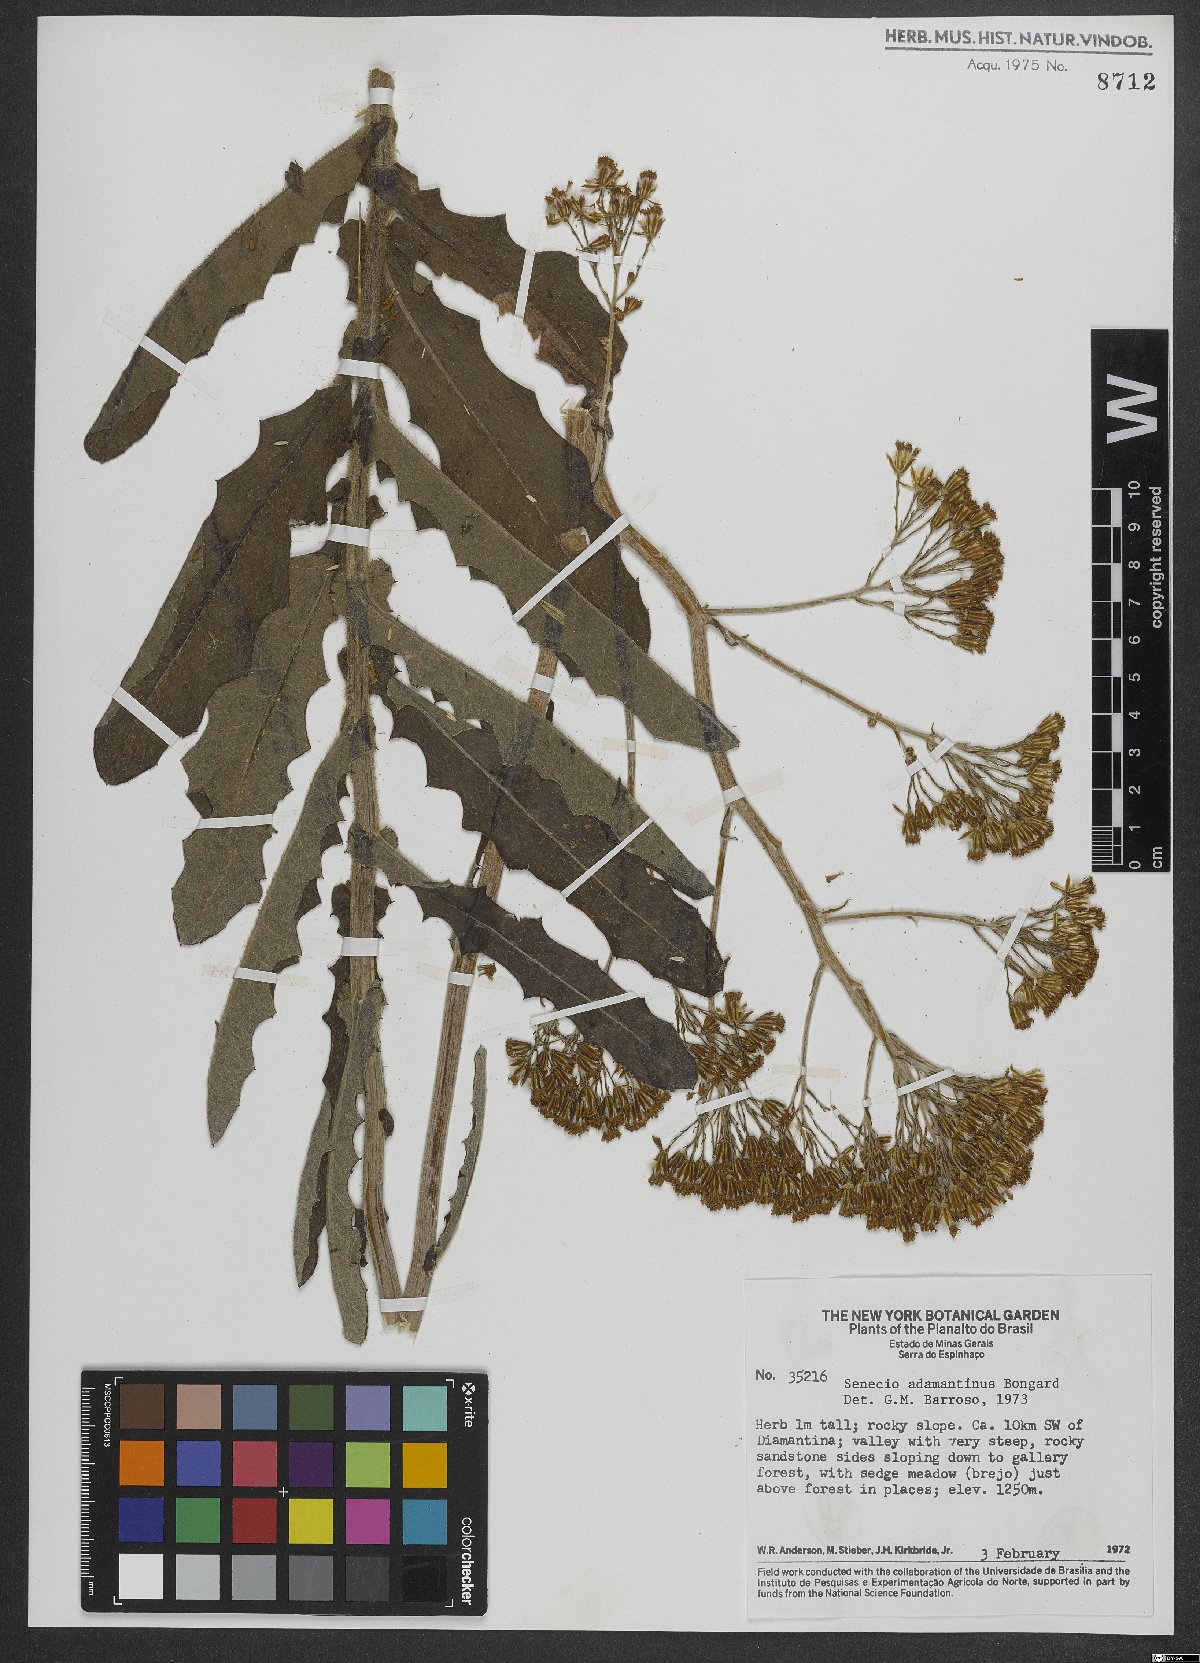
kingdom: Plantae
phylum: Tracheophyta
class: Magnoliopsida
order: Asterales
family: Asteraceae
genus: Senecio
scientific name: Senecio adamantinus
